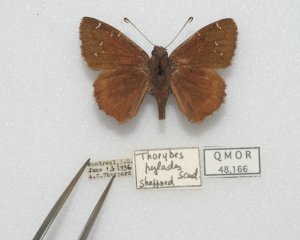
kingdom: Animalia
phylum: Arthropoda
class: Insecta
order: Lepidoptera
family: Hesperiidae
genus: Autochton
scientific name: Autochton
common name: Northern Cloudywing
